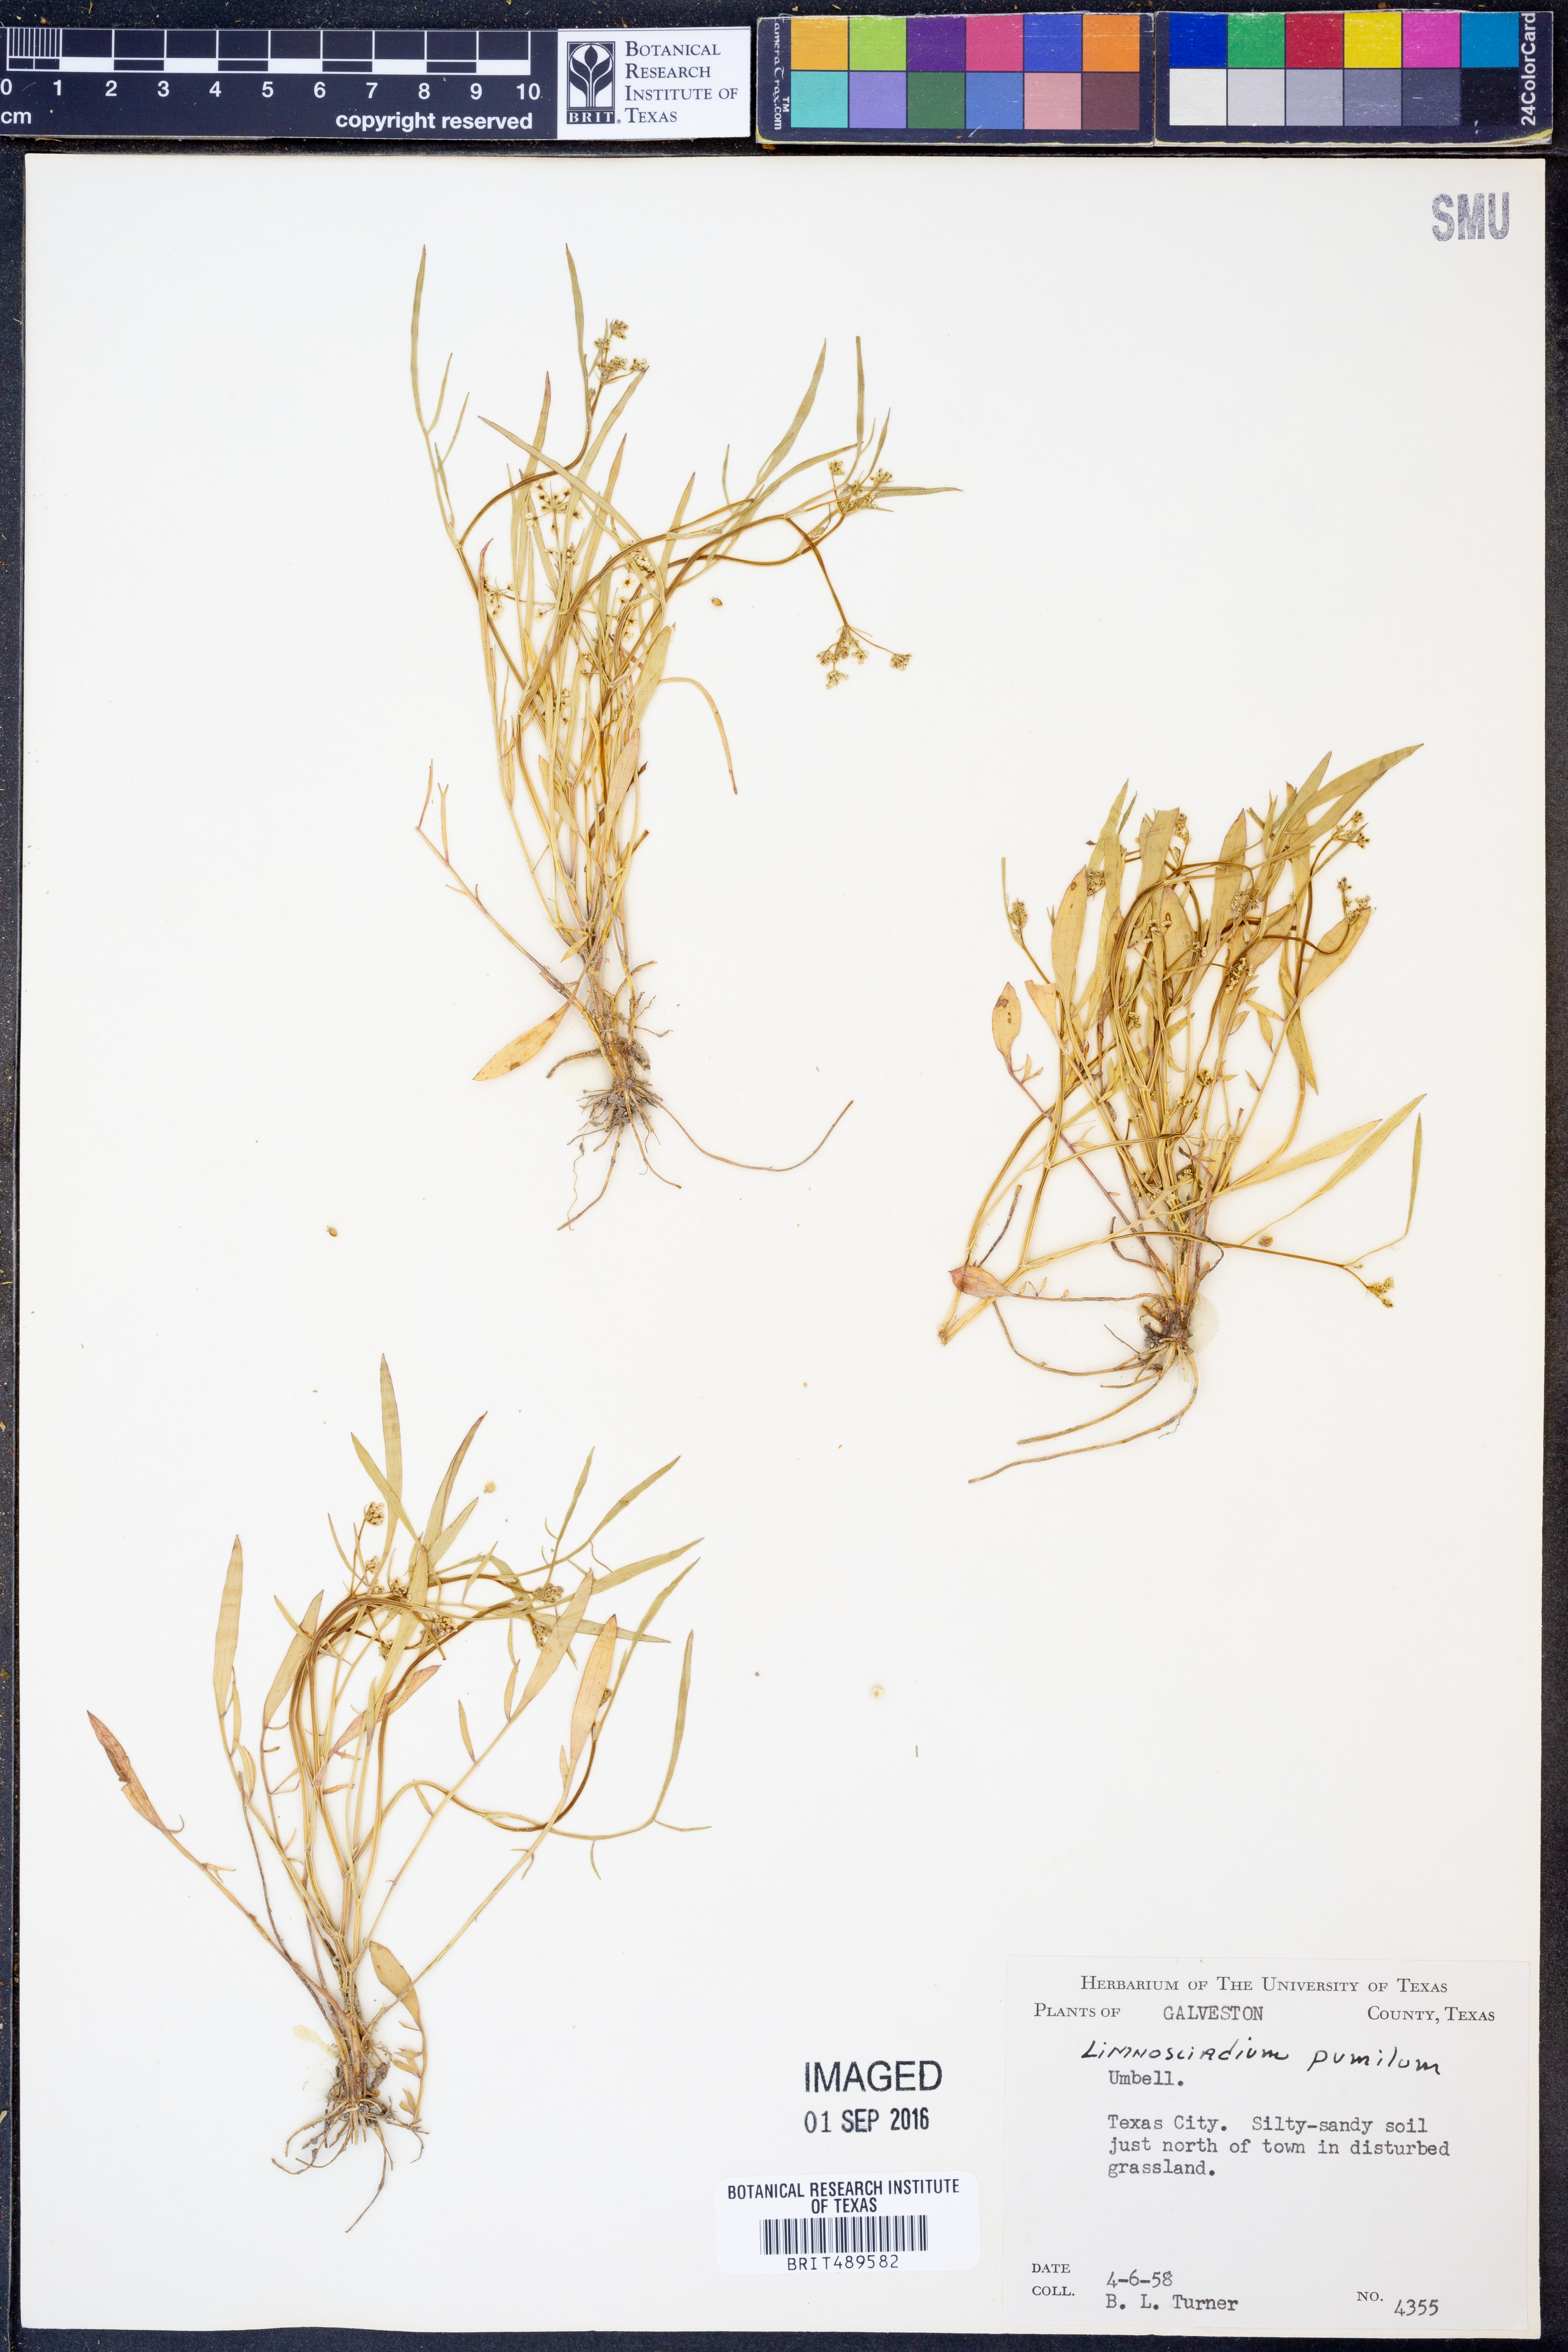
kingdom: Plantae
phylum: Tracheophyta
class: Magnoliopsida
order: Apiales
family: Apiaceae
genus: Limnosciadium
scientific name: Limnosciadium pinnatum
